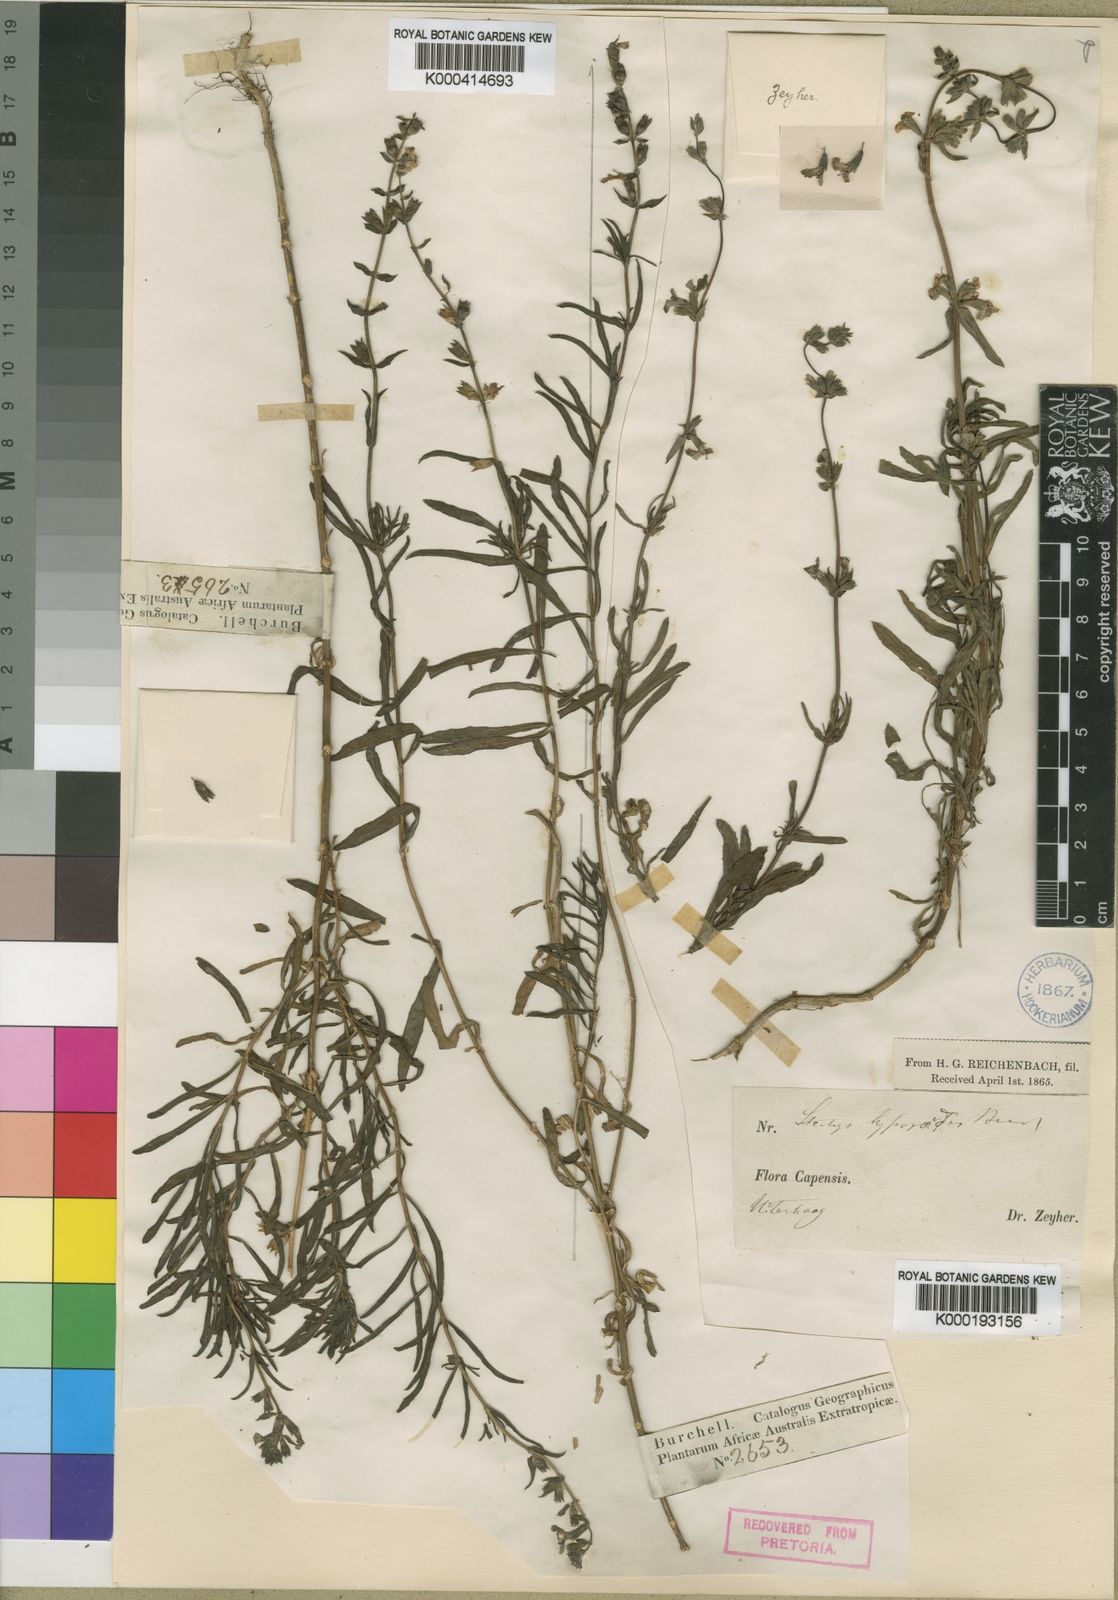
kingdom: Plantae
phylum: Tracheophyta
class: Magnoliopsida
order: Lamiales
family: Lamiaceae
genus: Stachys
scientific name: Stachys hyssopoides
